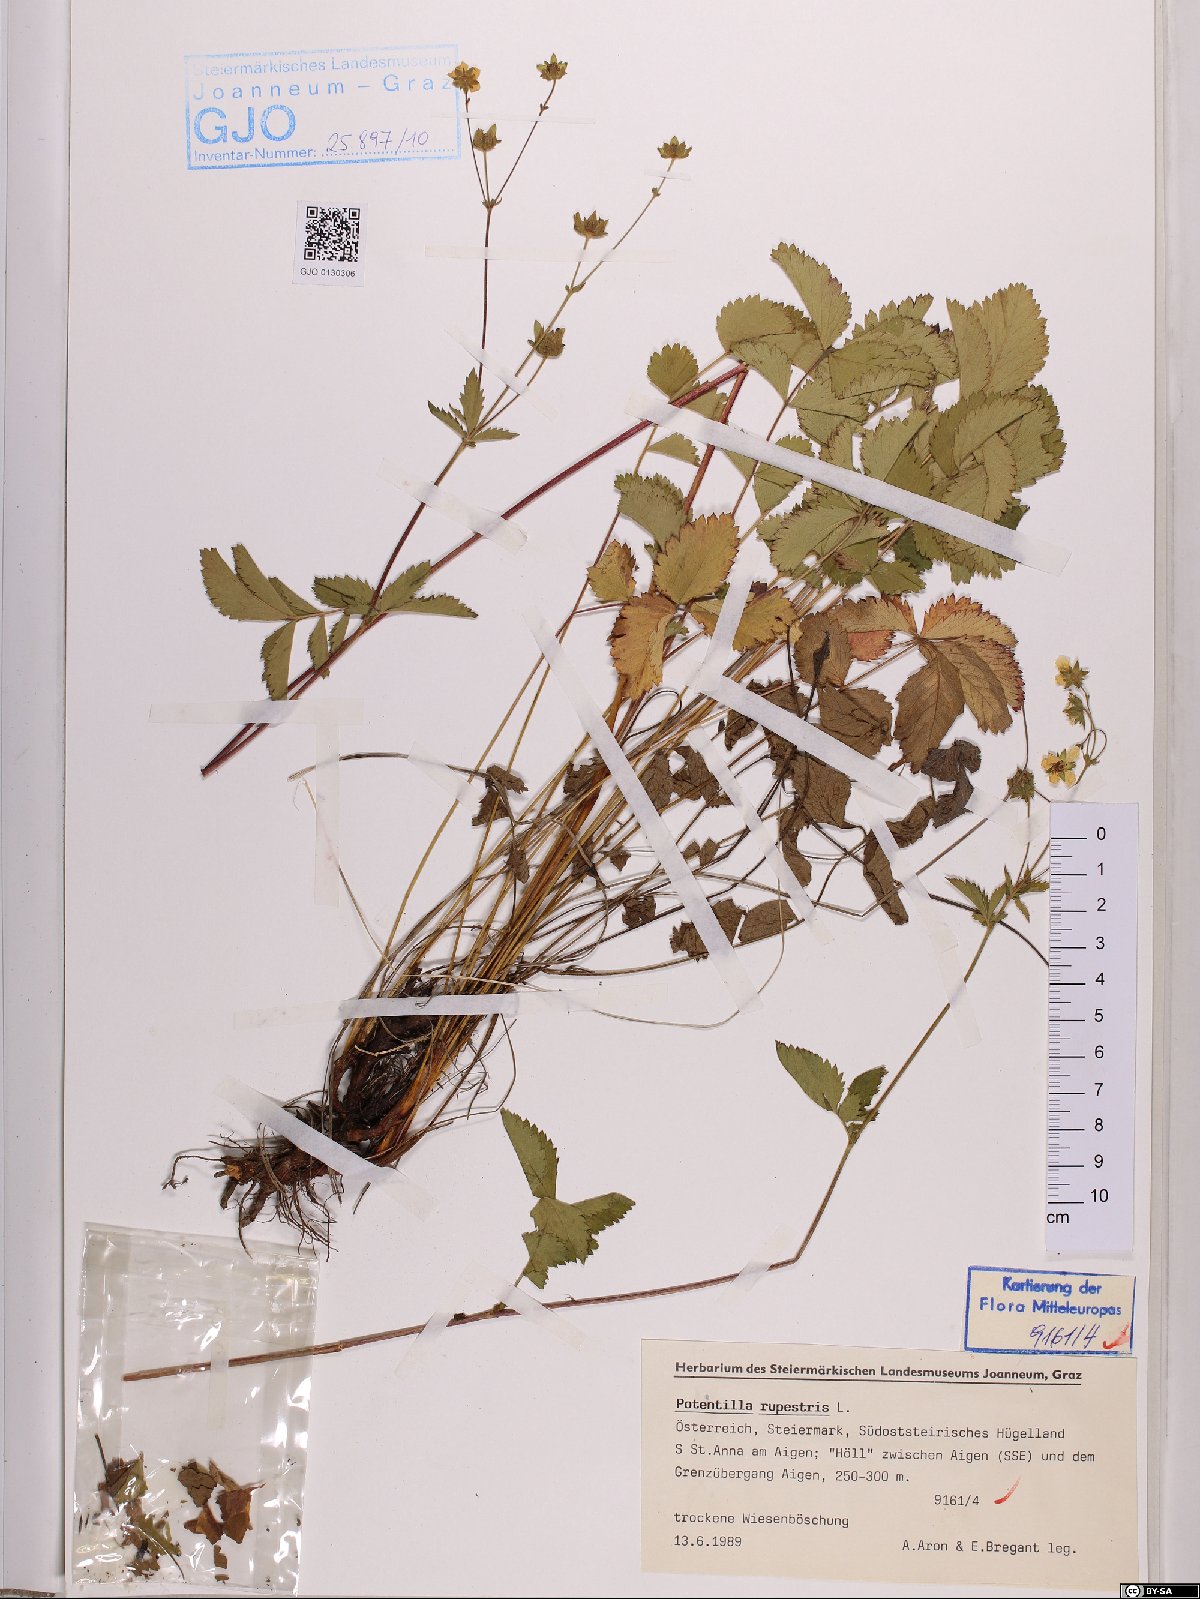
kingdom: Plantae
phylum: Tracheophyta
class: Magnoliopsida
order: Rosales
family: Rosaceae
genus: Drymocallis
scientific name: Drymocallis rupestris
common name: Rock cinquefoil
